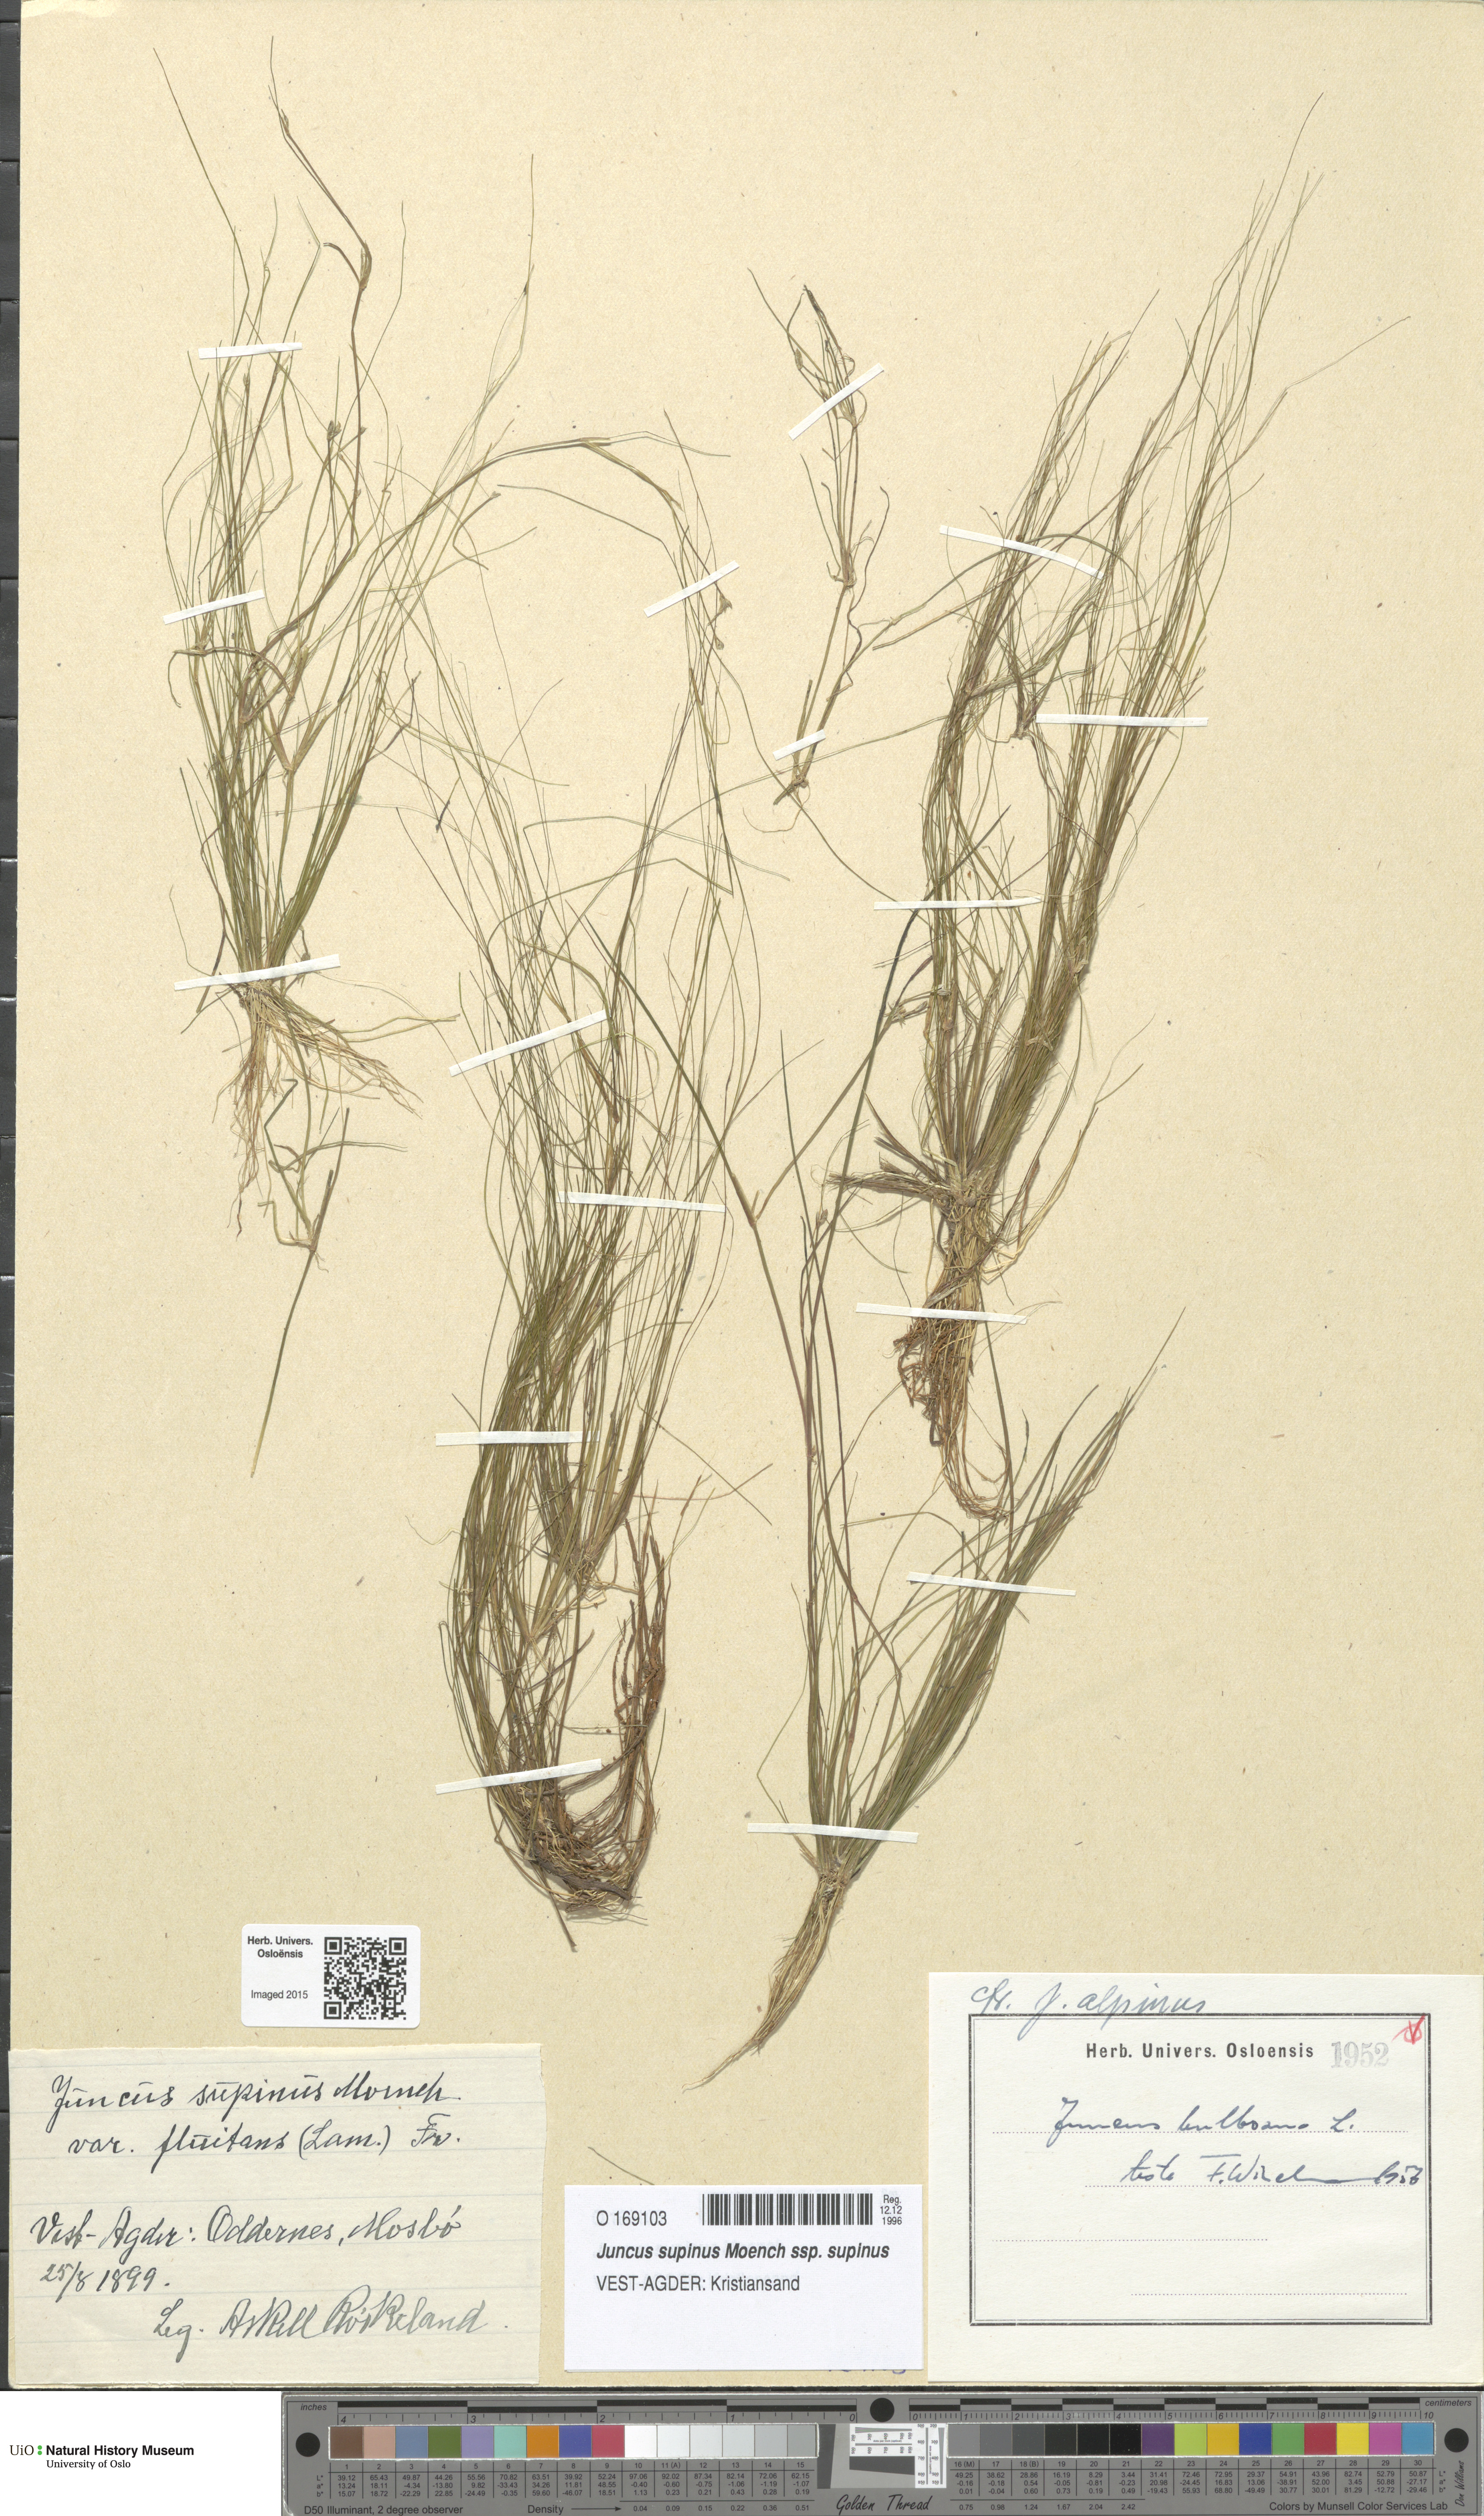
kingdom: Plantae
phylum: Tracheophyta
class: Liliopsida
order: Poales
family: Juncaceae
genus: Juncus
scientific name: Juncus bulbosus
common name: Bulbous rush
